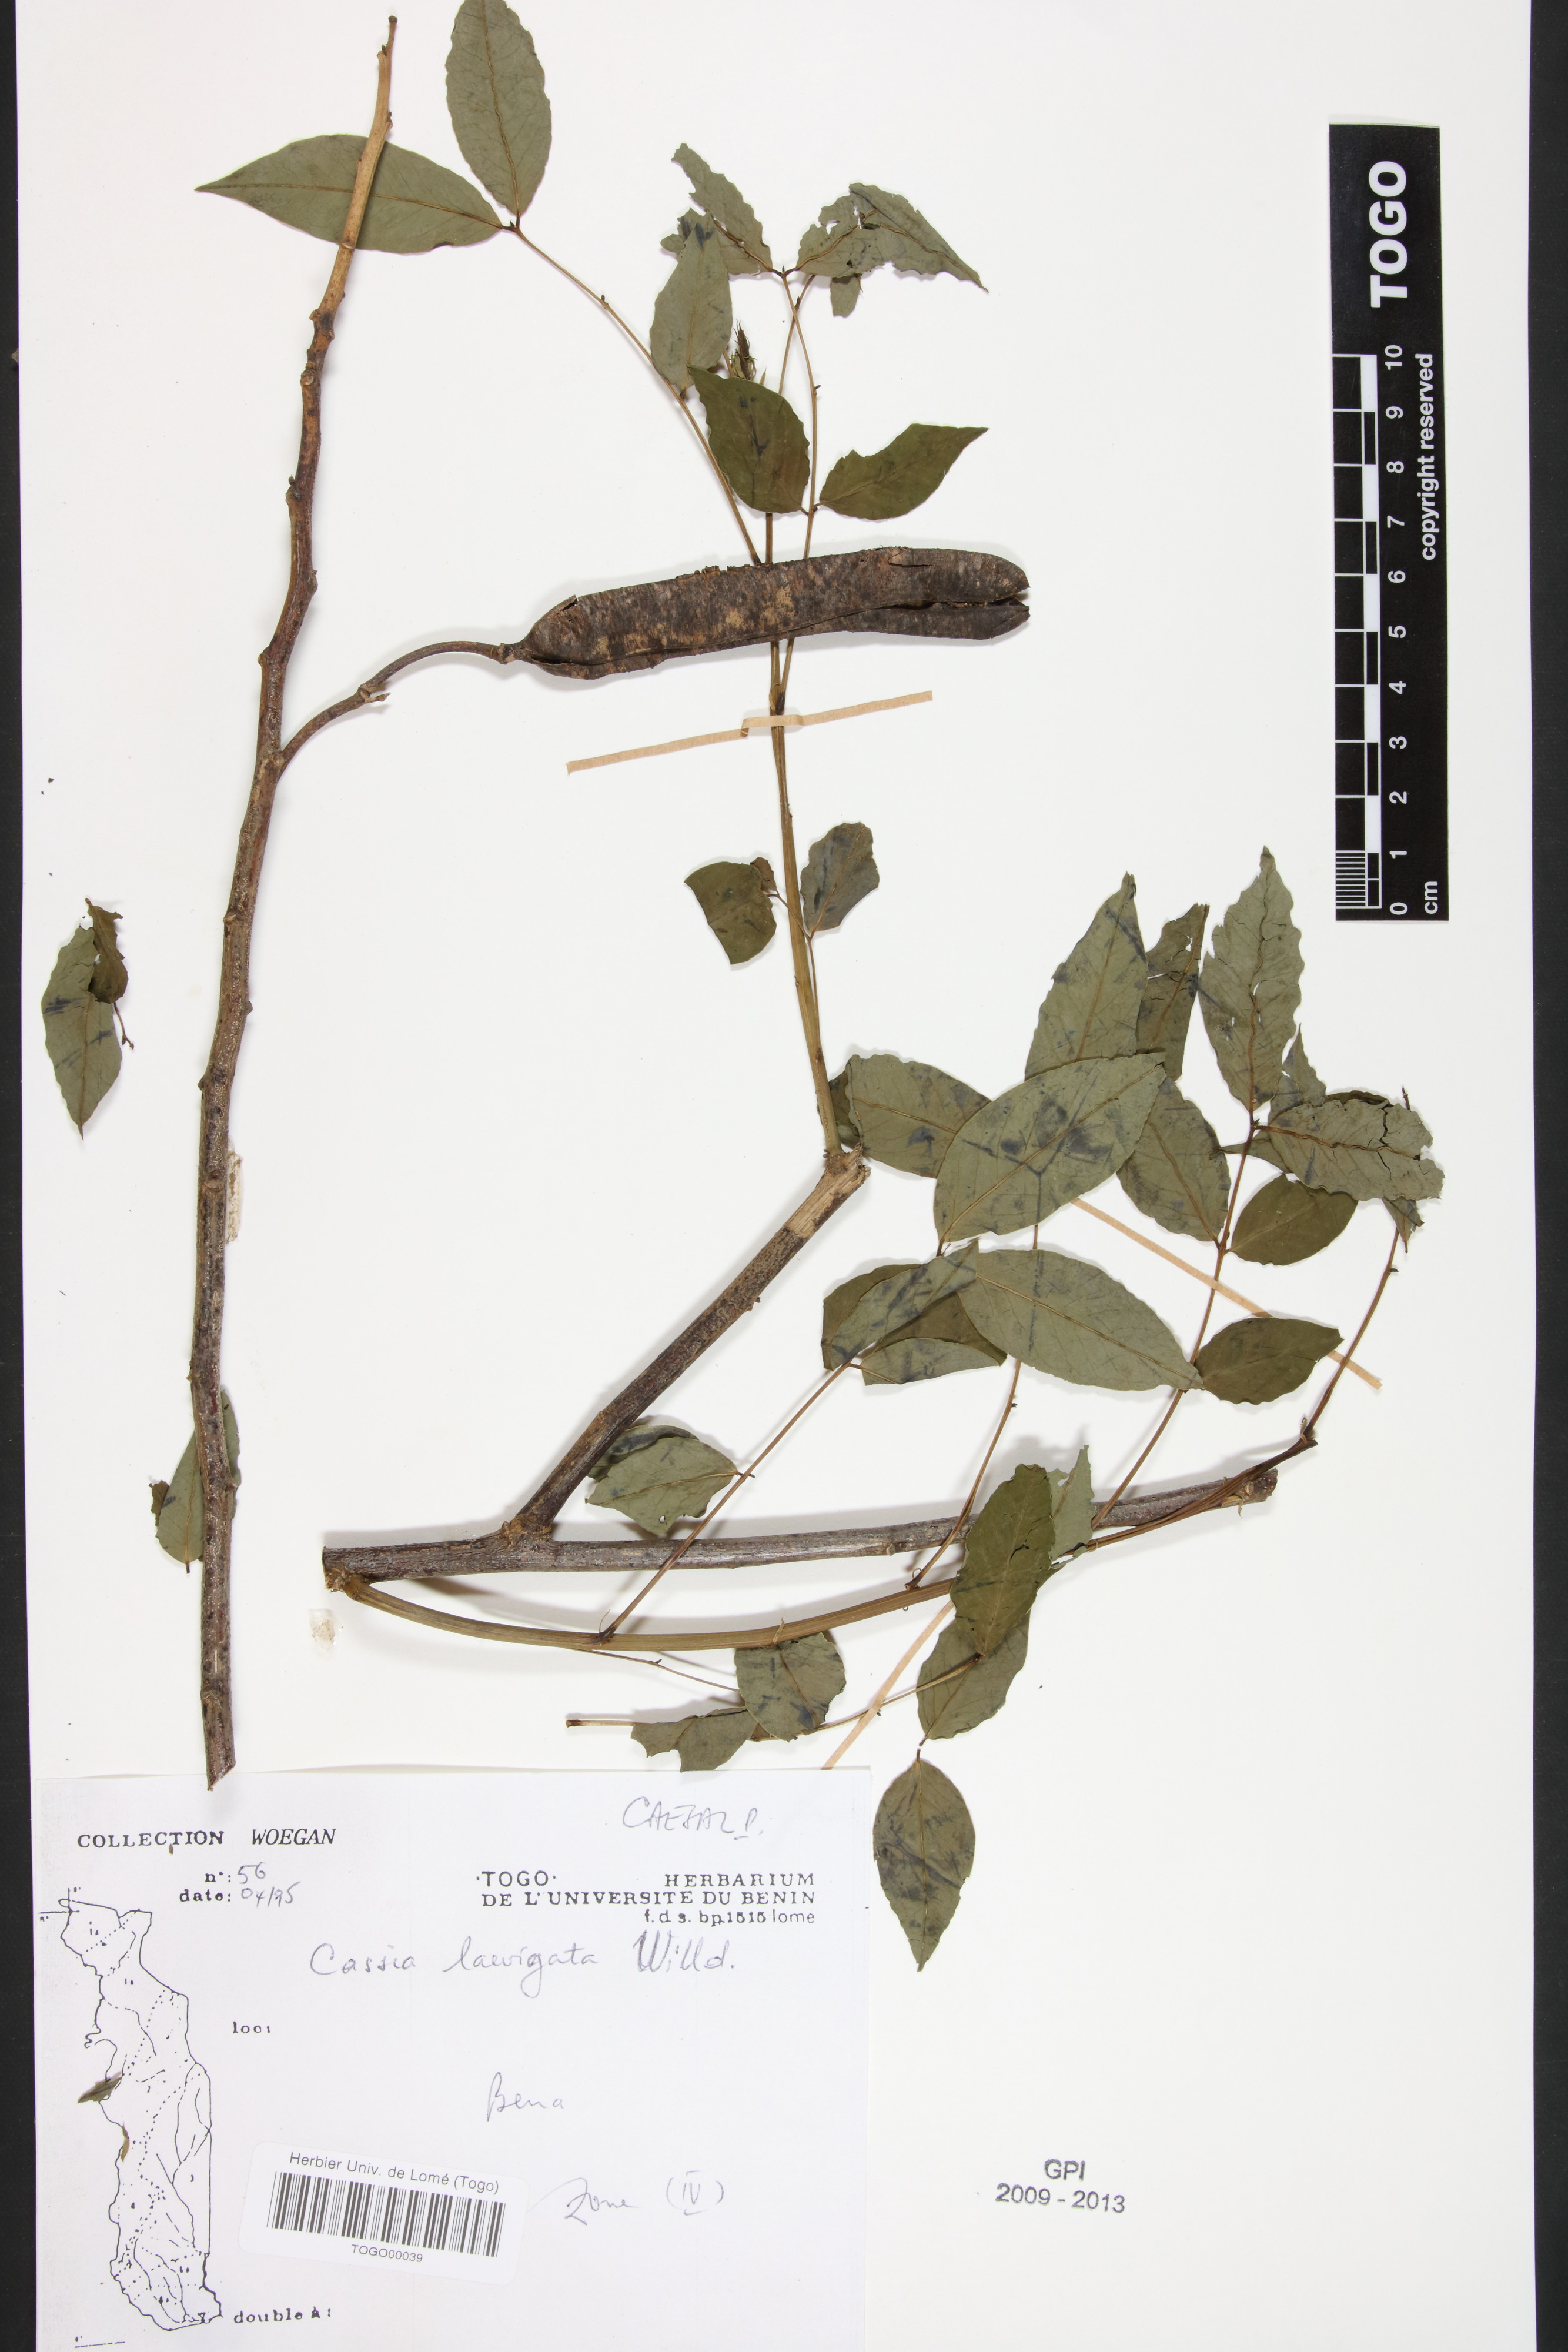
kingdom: Plantae
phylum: Tracheophyta
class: Magnoliopsida
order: Fabales
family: Fabaceae
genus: Senna
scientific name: Senna
